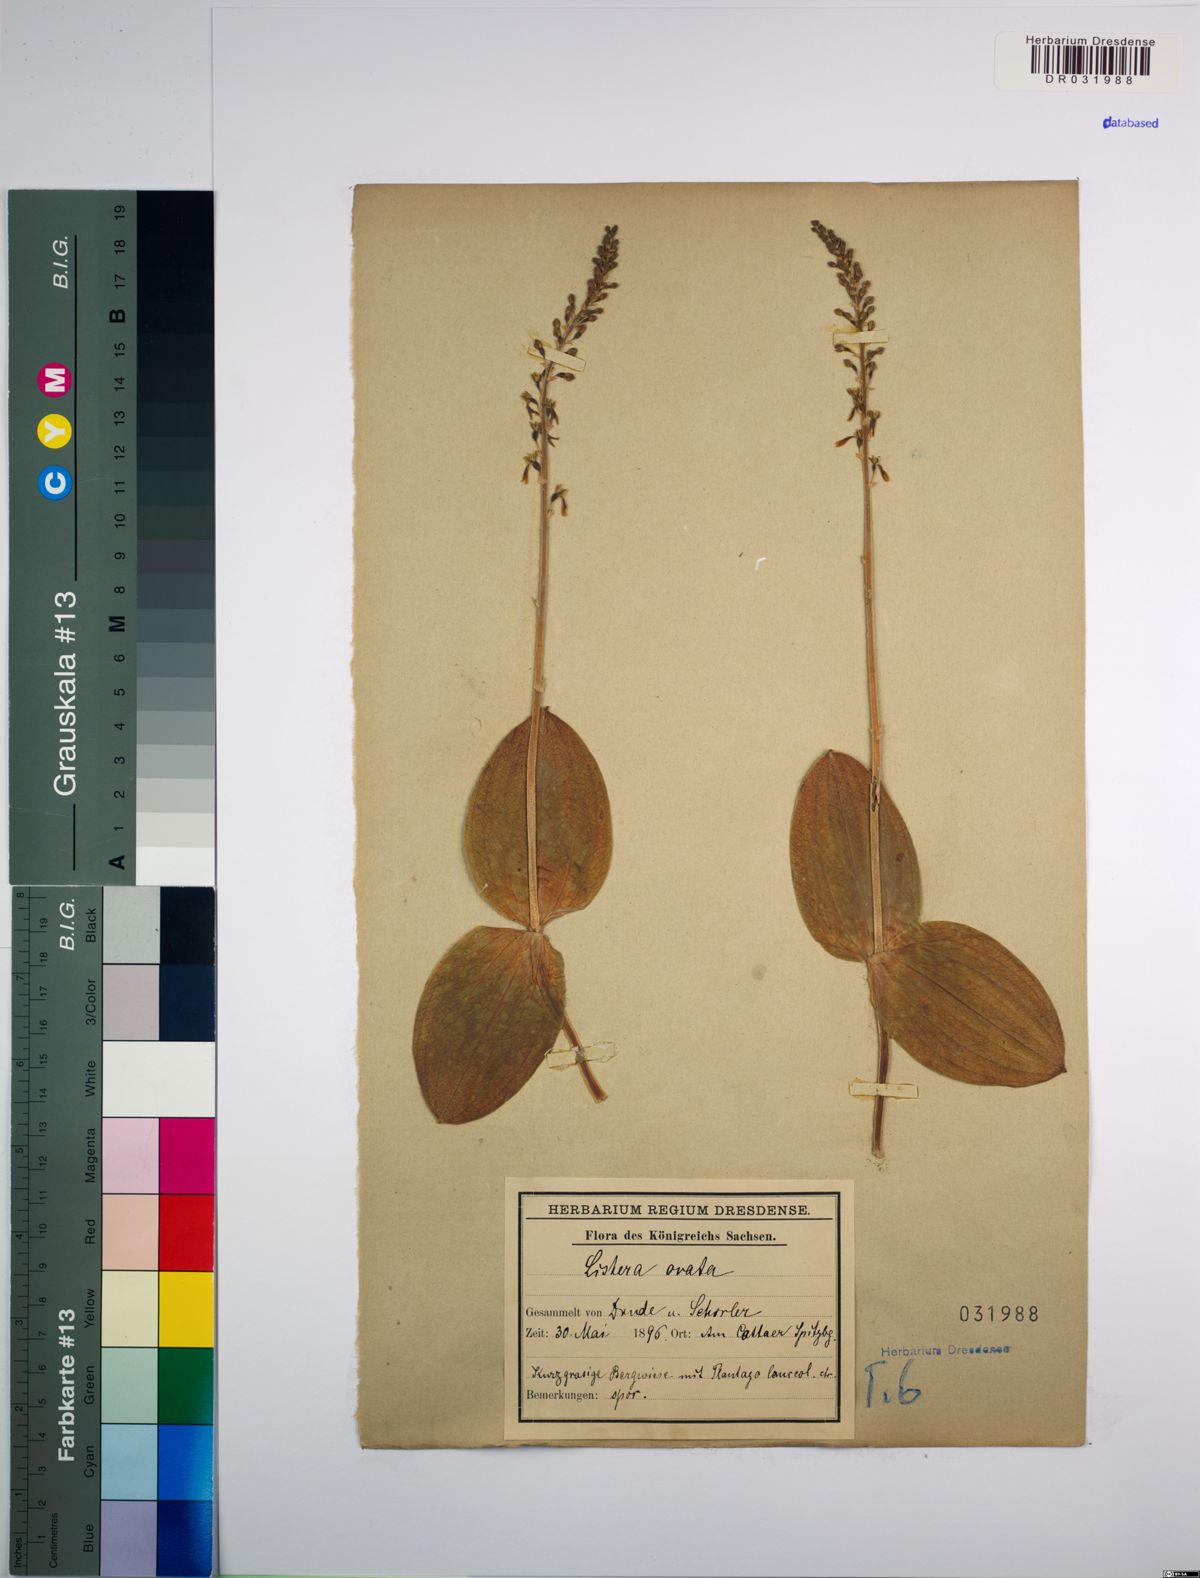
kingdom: Plantae
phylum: Tracheophyta
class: Liliopsida
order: Asparagales
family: Orchidaceae
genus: Neottia
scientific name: Neottia ovata
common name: Common twayblade
